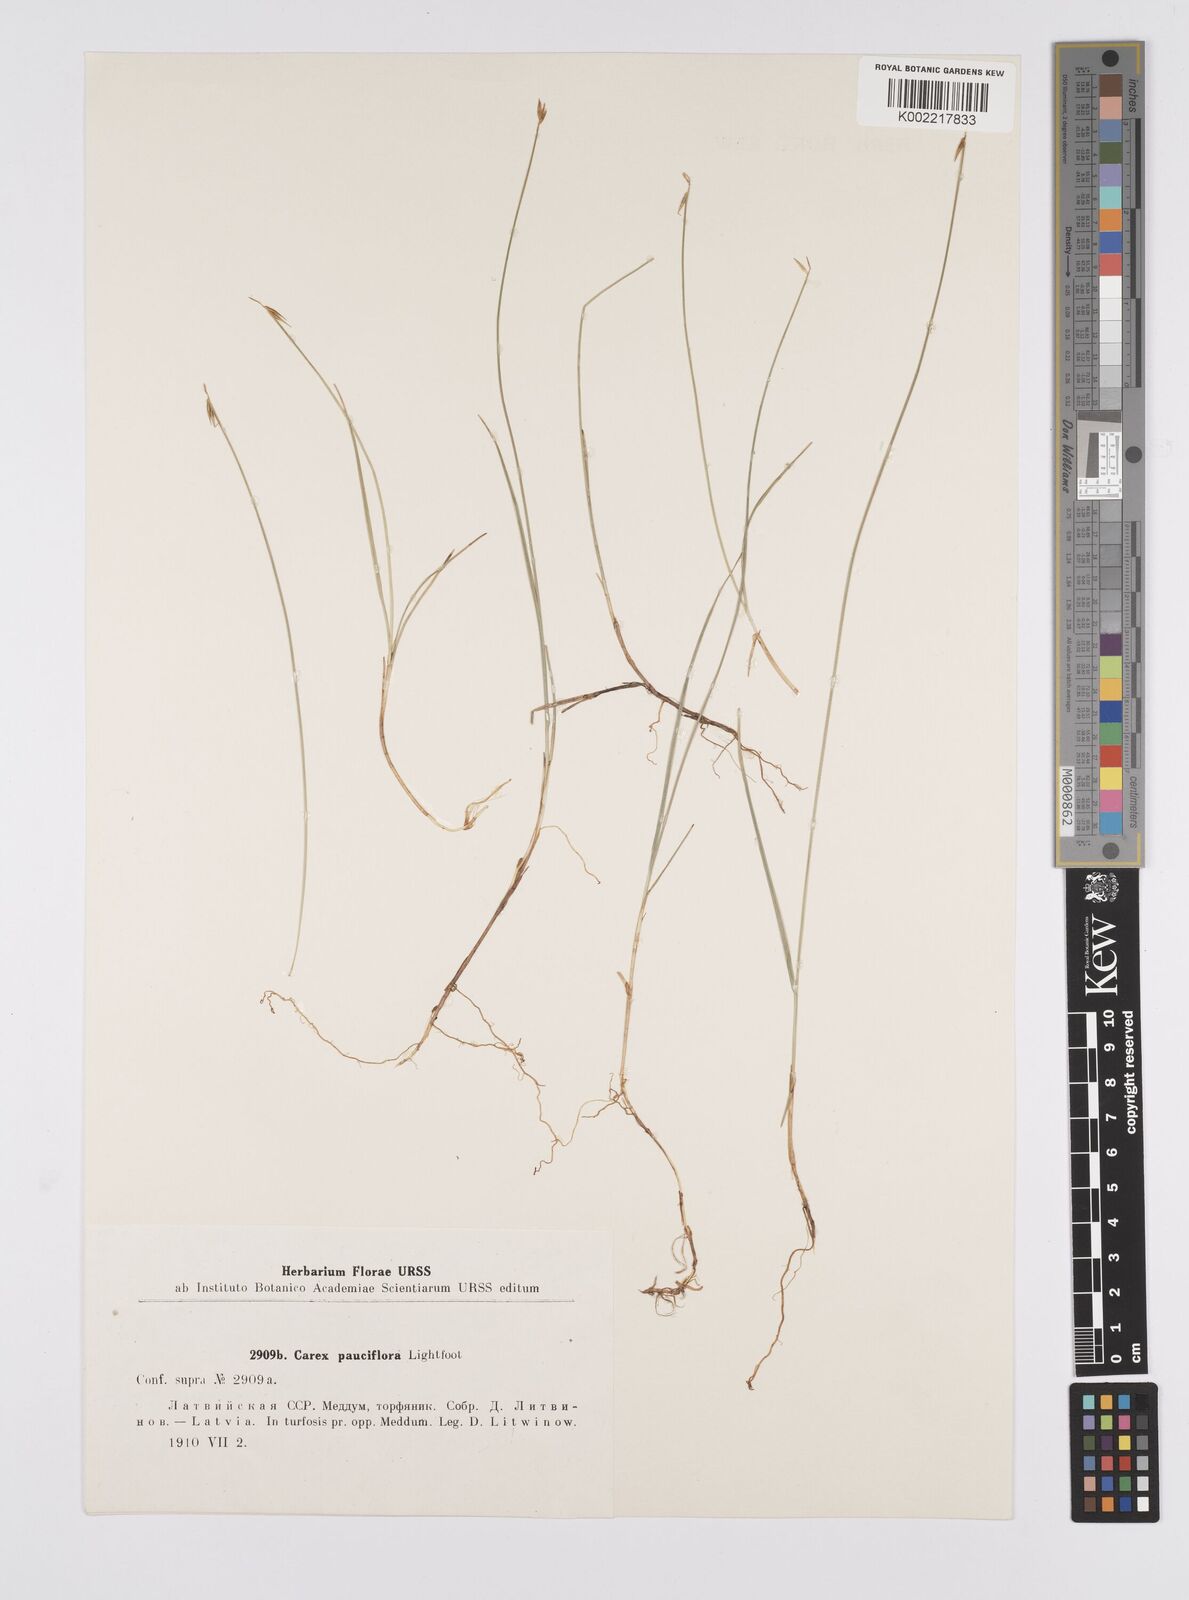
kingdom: Plantae
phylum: Tracheophyta
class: Liliopsida
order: Poales
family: Cyperaceae
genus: Carex
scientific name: Carex pauciflora
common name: Few-flowered sedge
